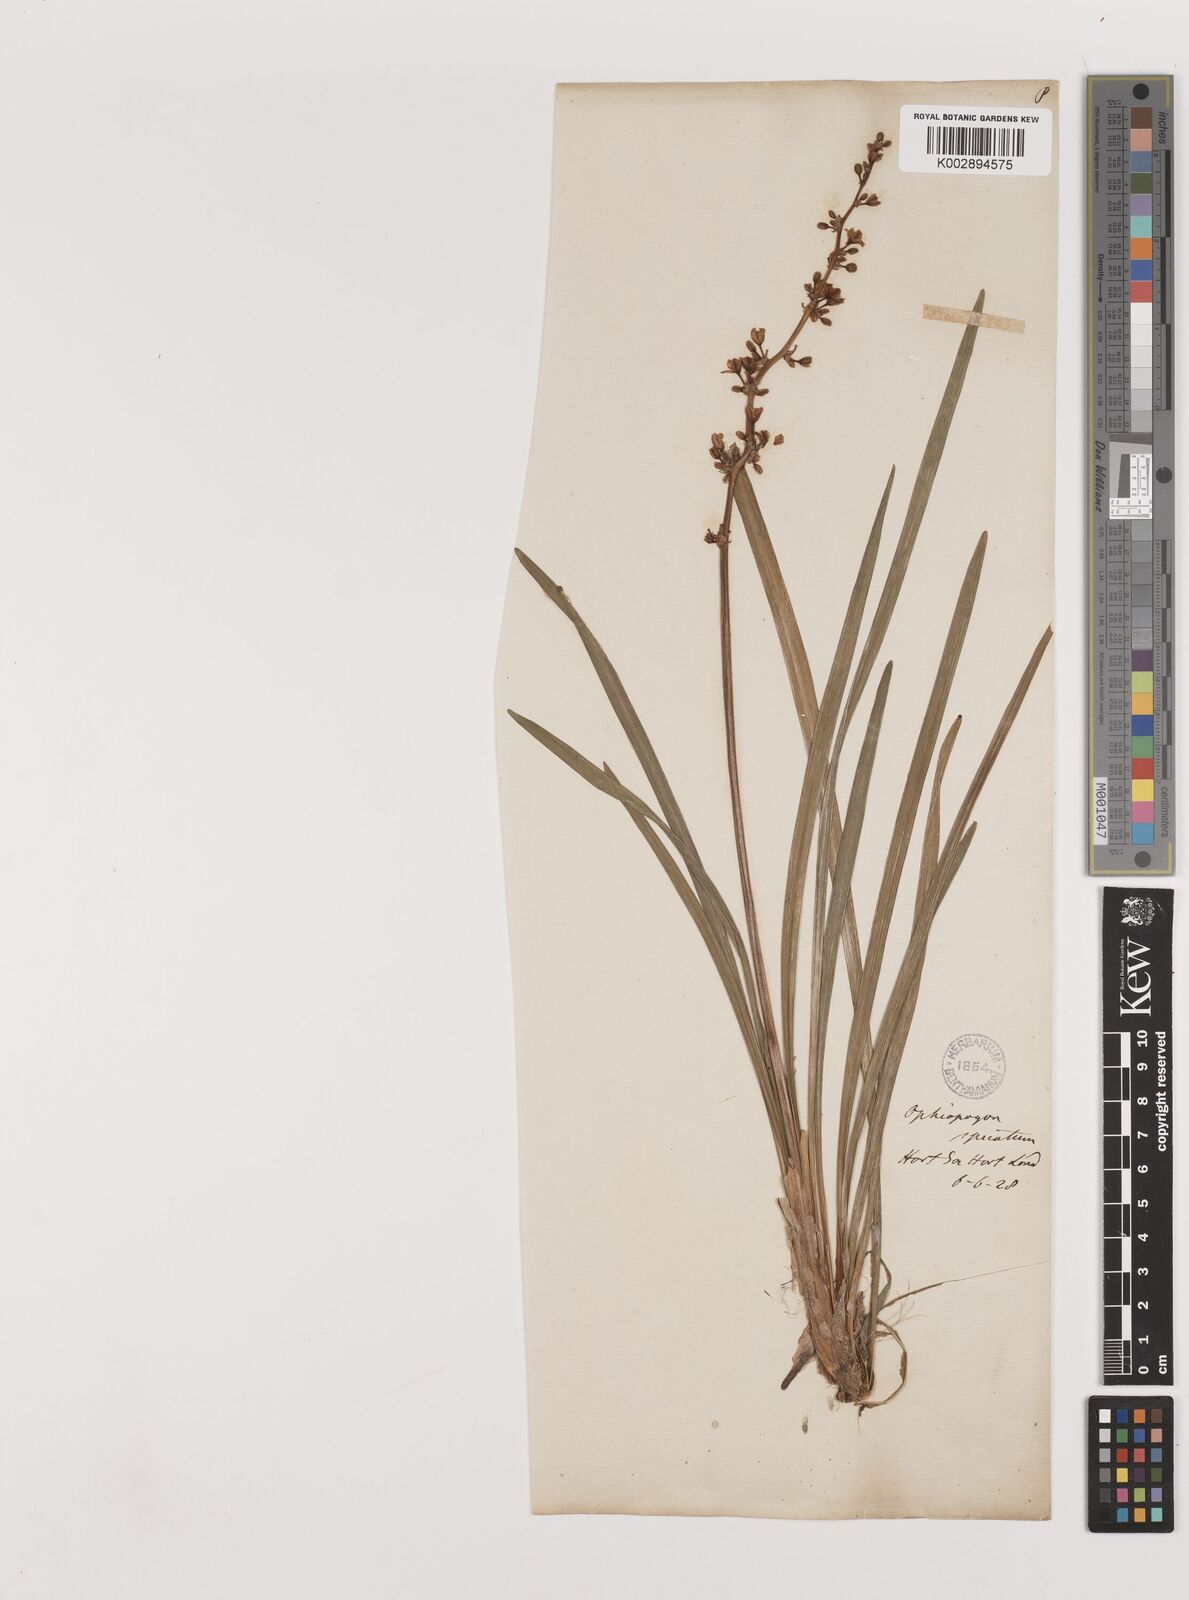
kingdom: Plantae
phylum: Tracheophyta
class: Liliopsida
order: Asparagales
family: Asparagaceae
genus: Liriope
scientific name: Liriope spicata
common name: Creeping liriope
